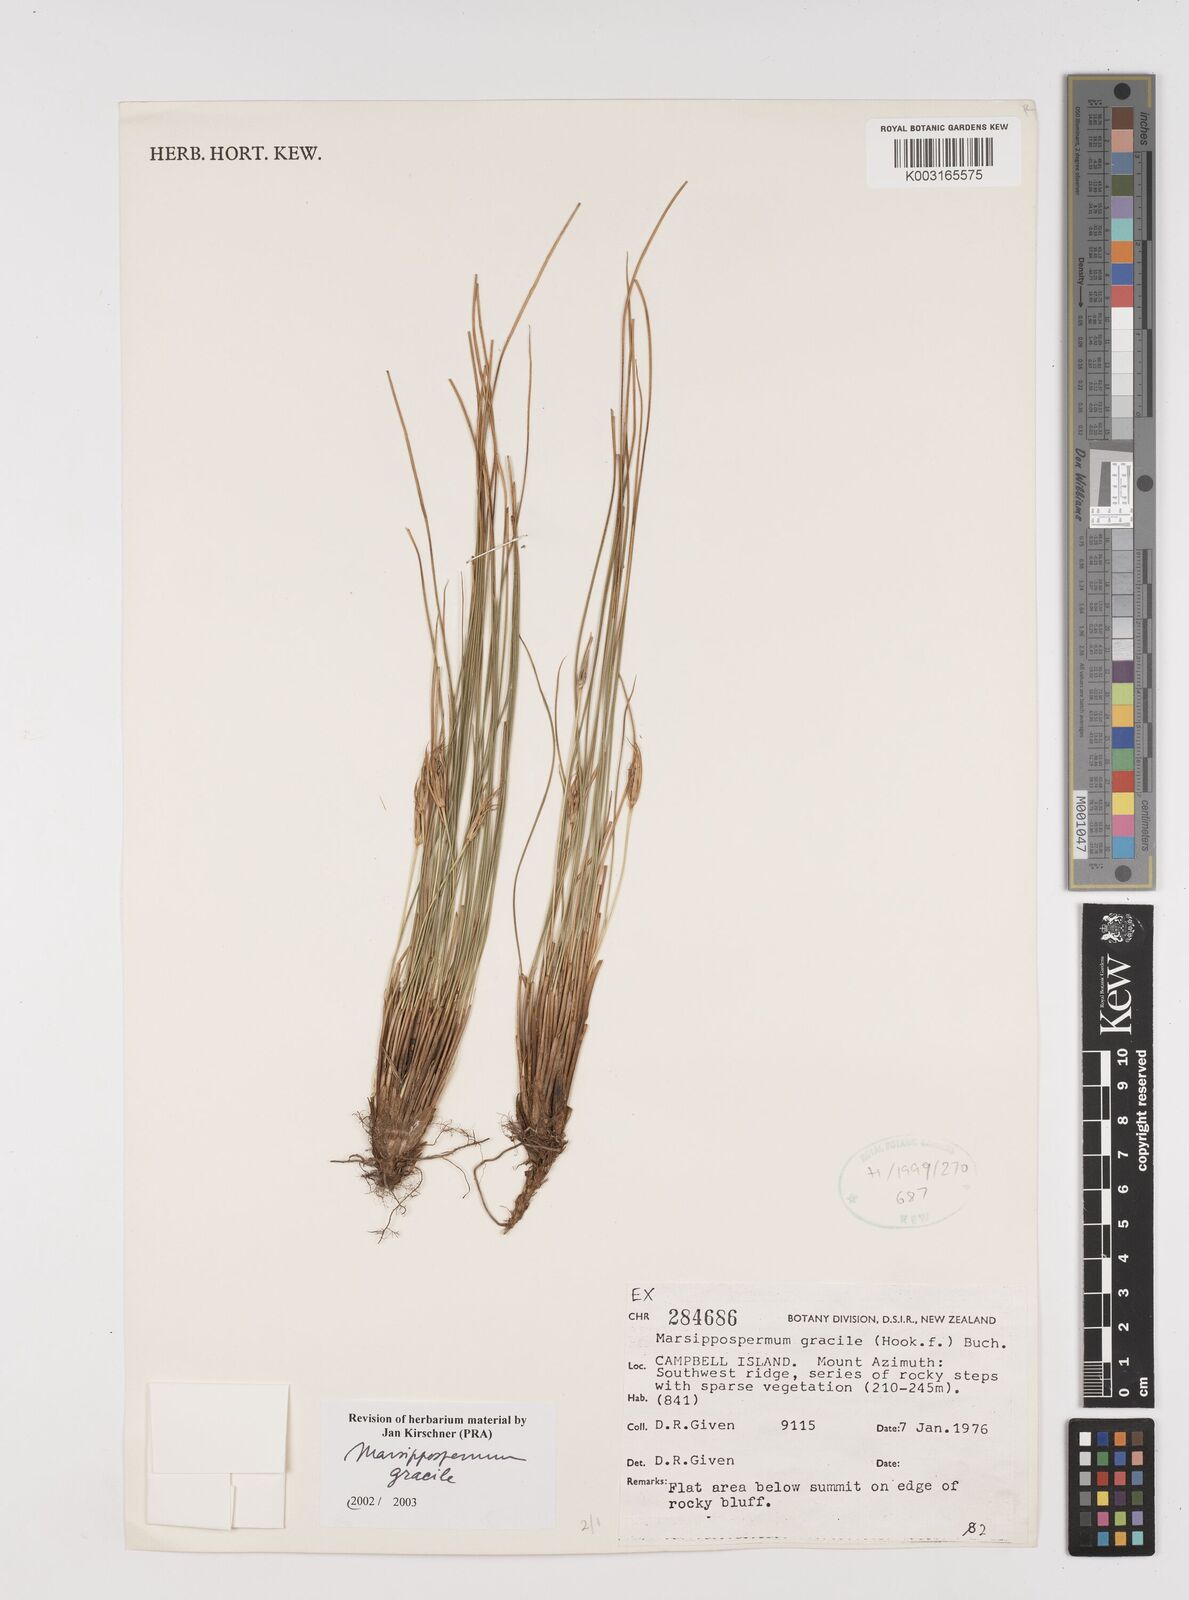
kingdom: Plantae
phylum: Tracheophyta
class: Liliopsida
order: Poales
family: Juncaceae
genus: Marsippospermum
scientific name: Marsippospermum gracile
